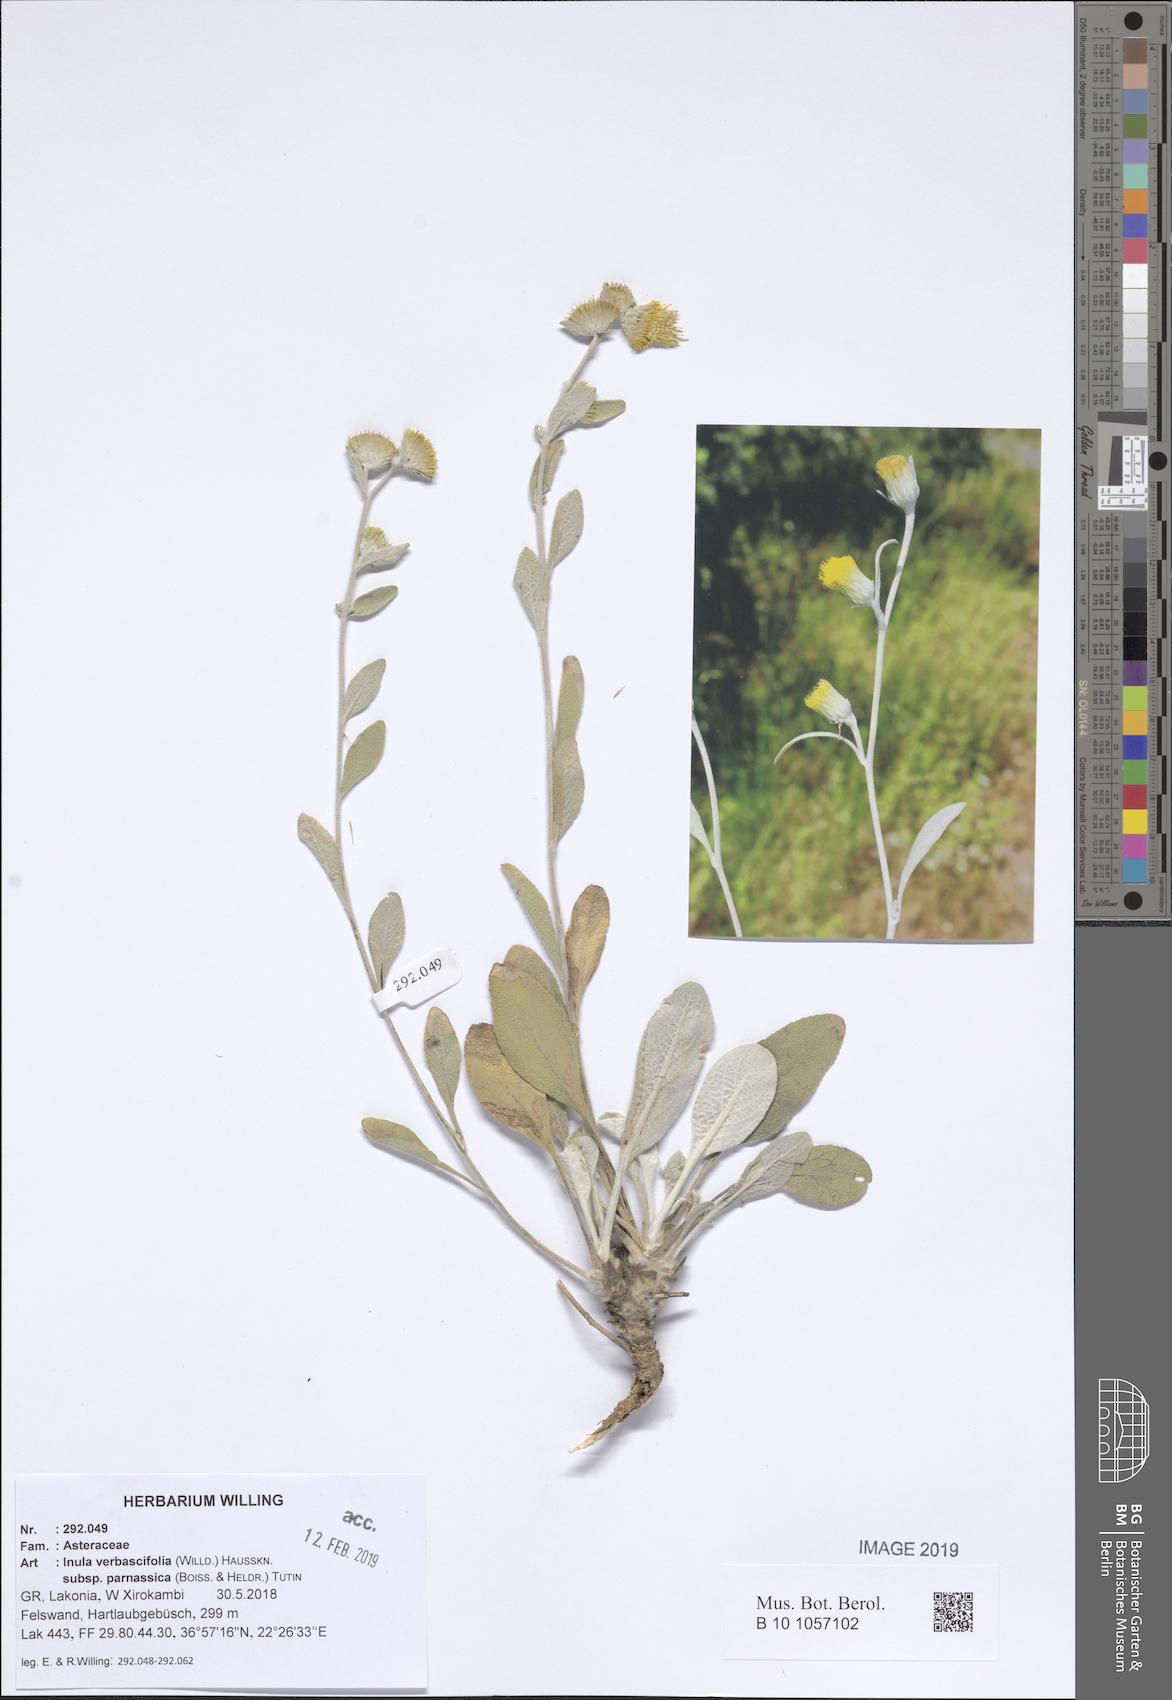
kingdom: Plantae
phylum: Tracheophyta
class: Magnoliopsida
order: Asterales
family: Asteraceae
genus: Pentanema
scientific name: Pentanema verbascifolium
